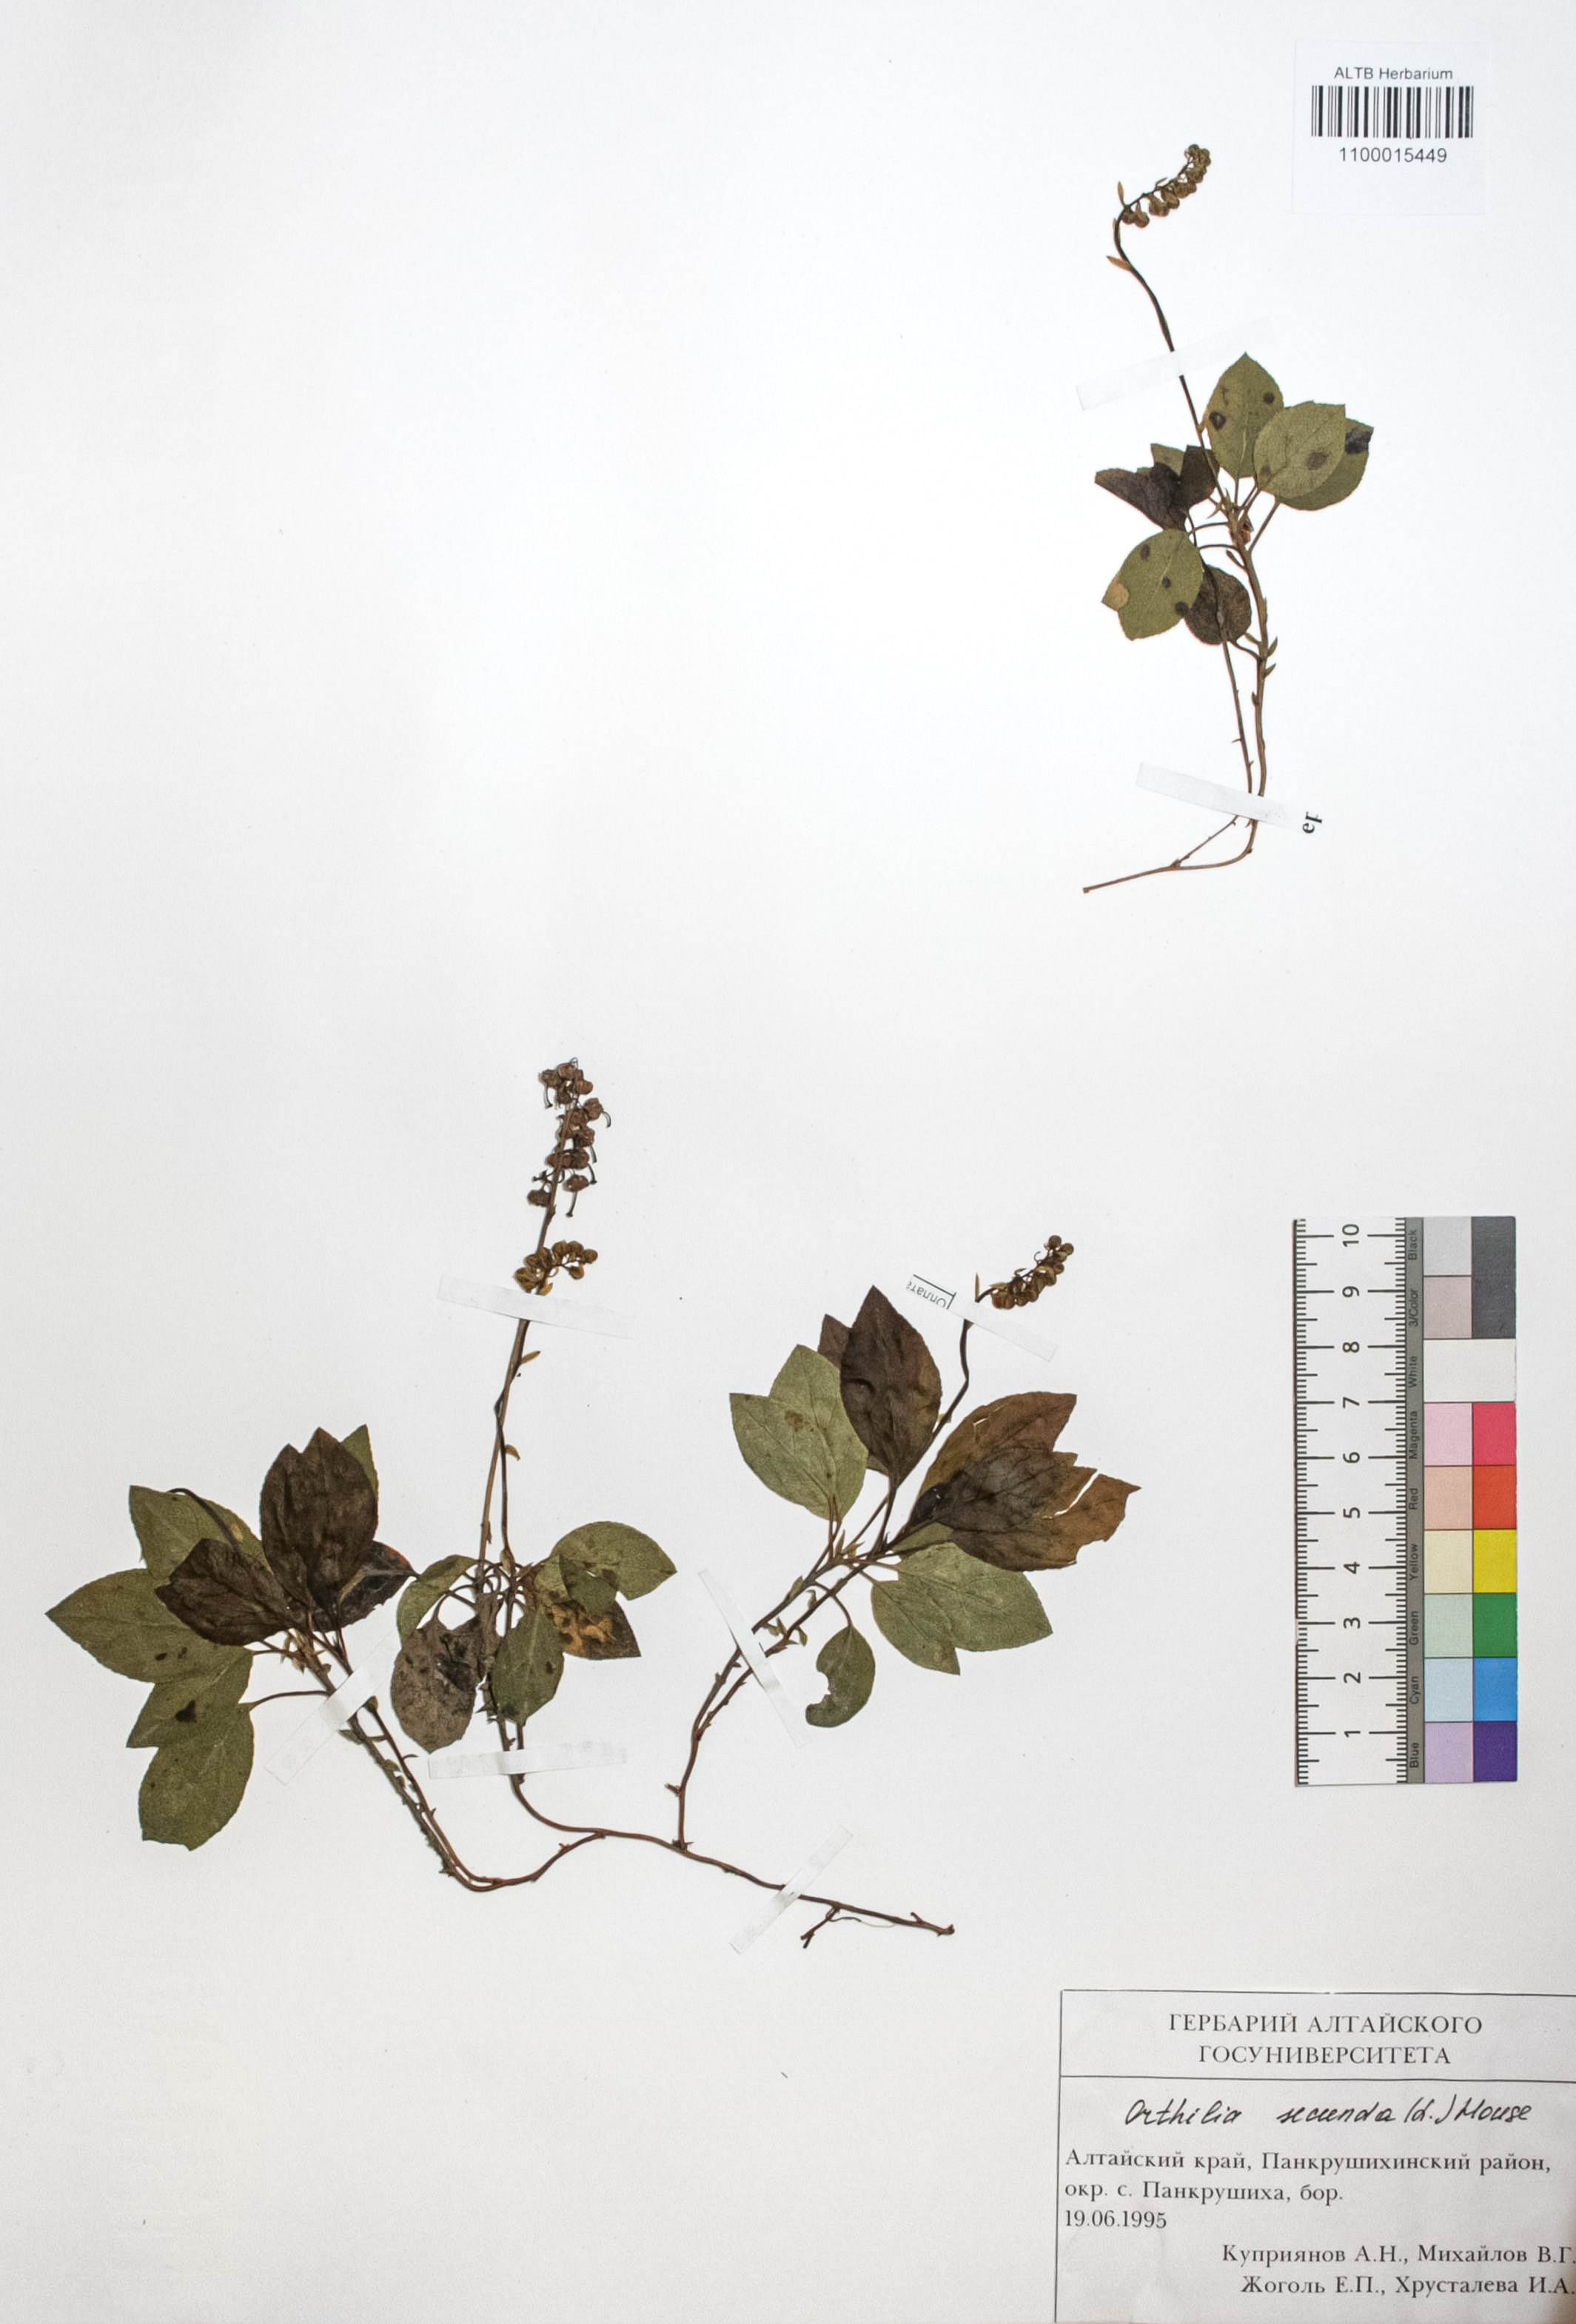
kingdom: Plantae
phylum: Tracheophyta
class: Magnoliopsida
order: Ericales
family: Ericaceae
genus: Orthilia
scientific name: Orthilia secunda
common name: One-sided orthilia
